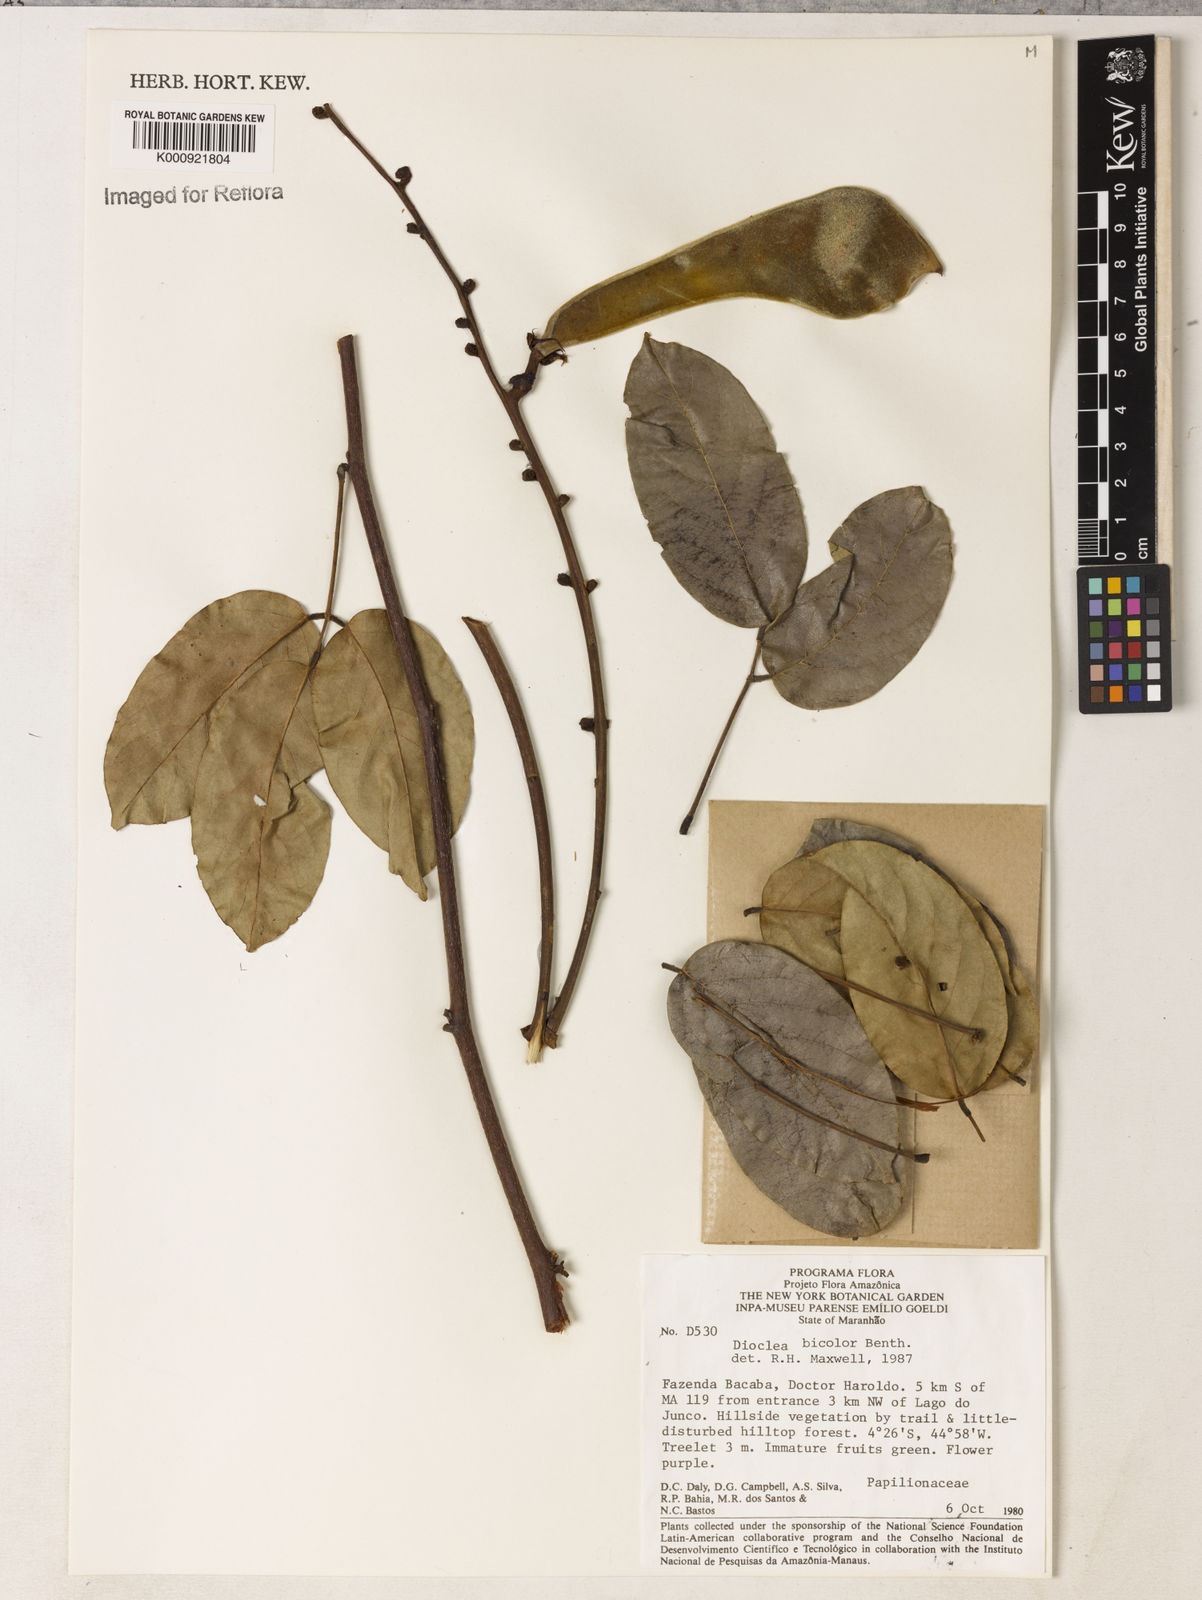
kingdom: Plantae
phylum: Tracheophyta
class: Magnoliopsida
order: Fabales
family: Fabaceae
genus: Macropsychanthus
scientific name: Macropsychanthus bicolor
